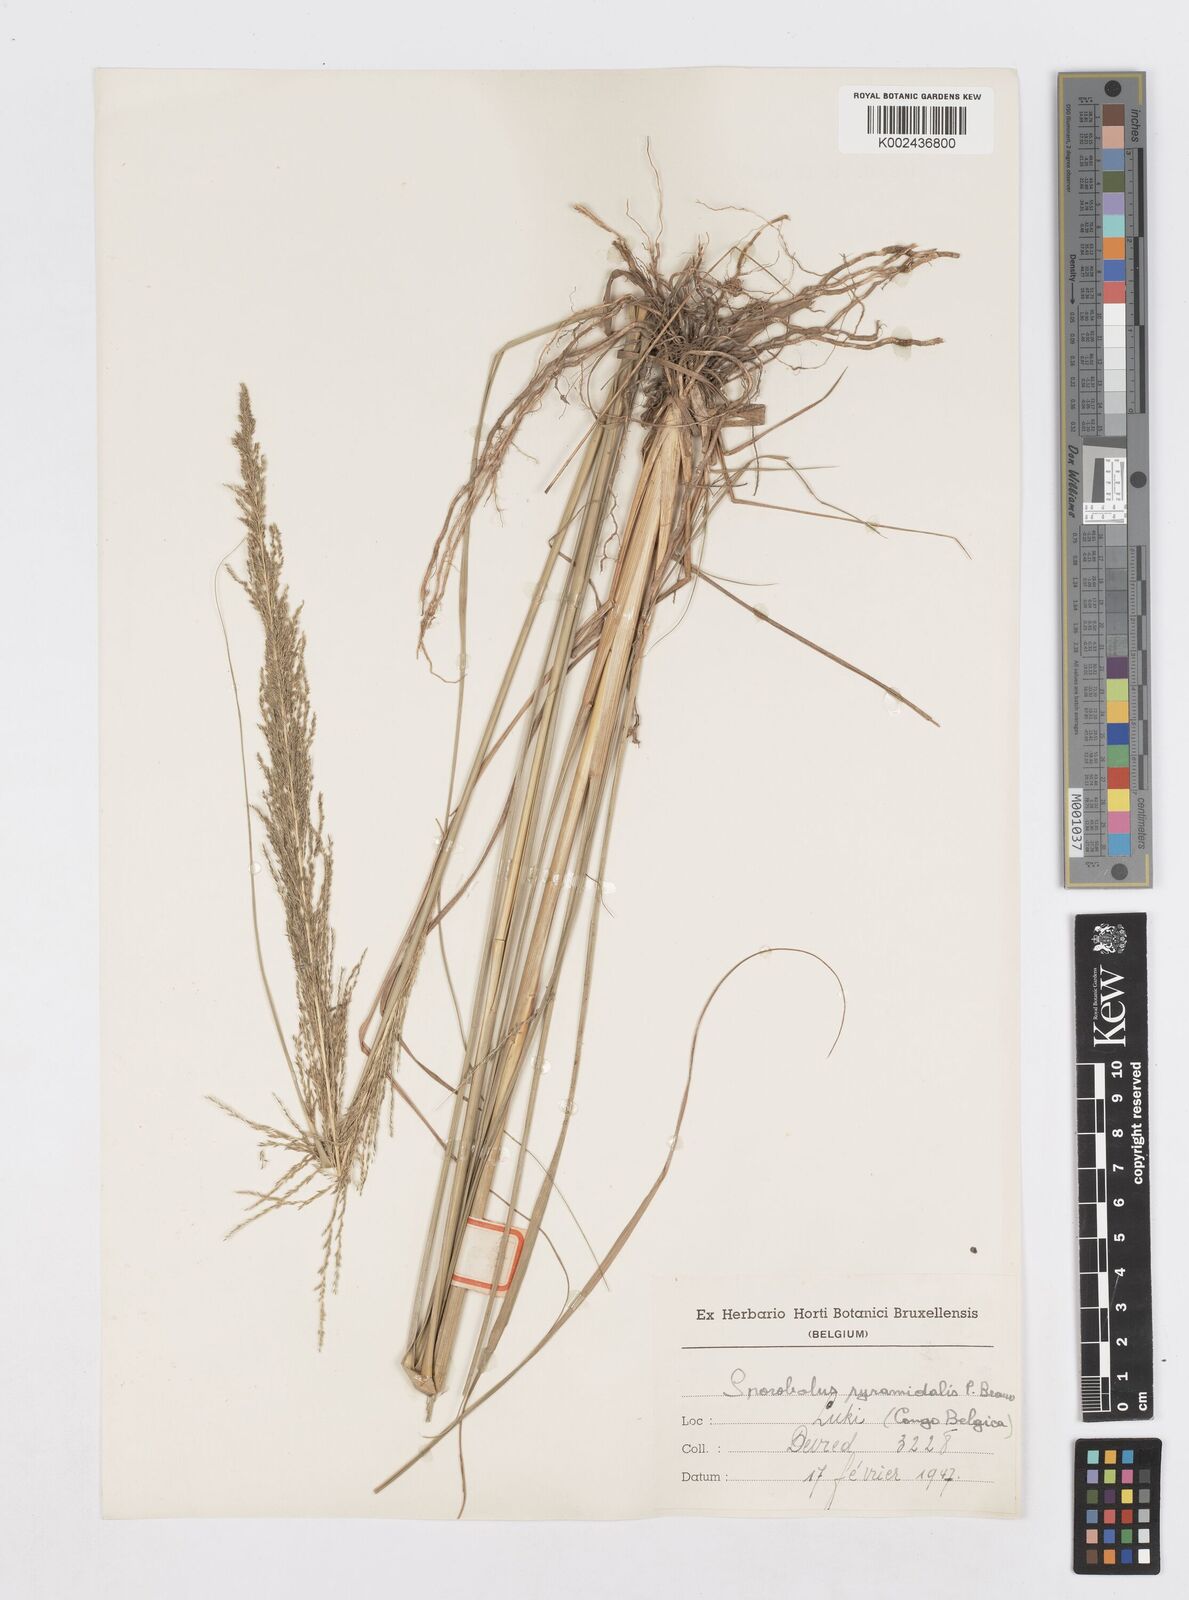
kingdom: Plantae
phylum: Tracheophyta
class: Liliopsida
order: Poales
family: Poaceae
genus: Sporobolus
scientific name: Sporobolus pyramidalis
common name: West indian dropseed
